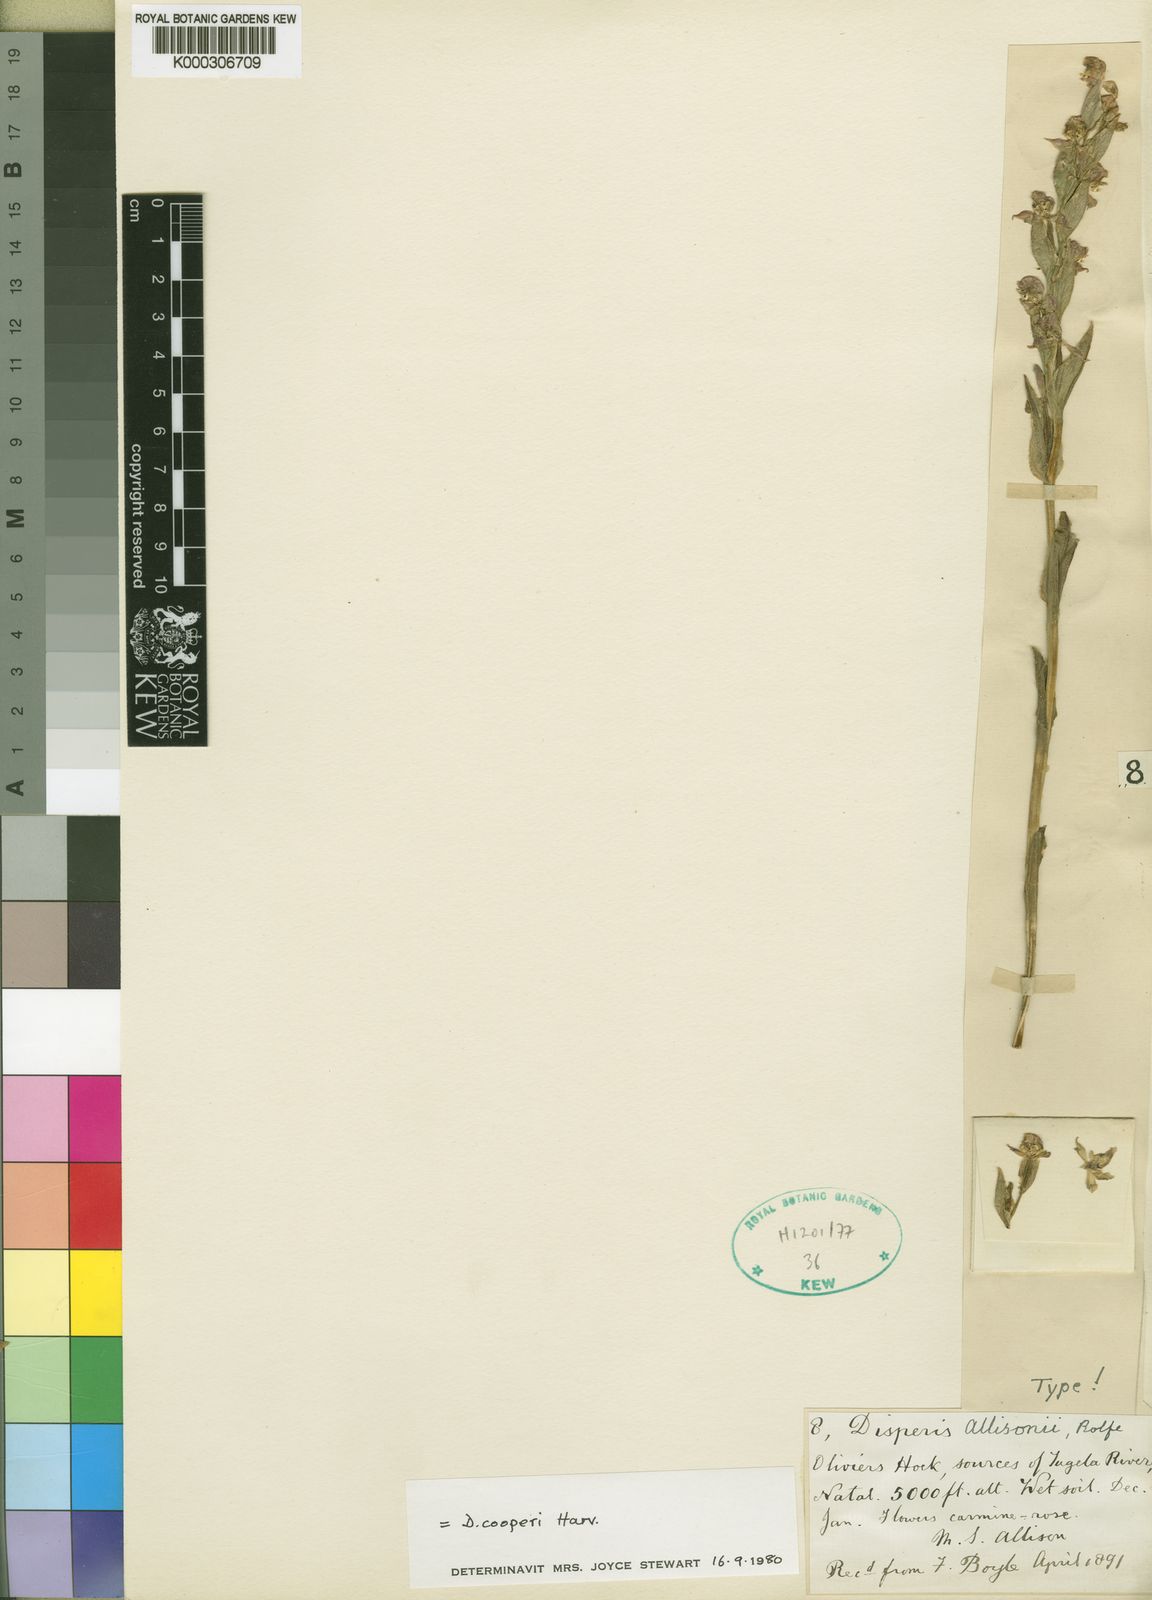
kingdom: Plantae
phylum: Tracheophyta
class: Liliopsida
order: Asparagales
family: Orchidaceae
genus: Disperis
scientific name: Disperis cooperi
